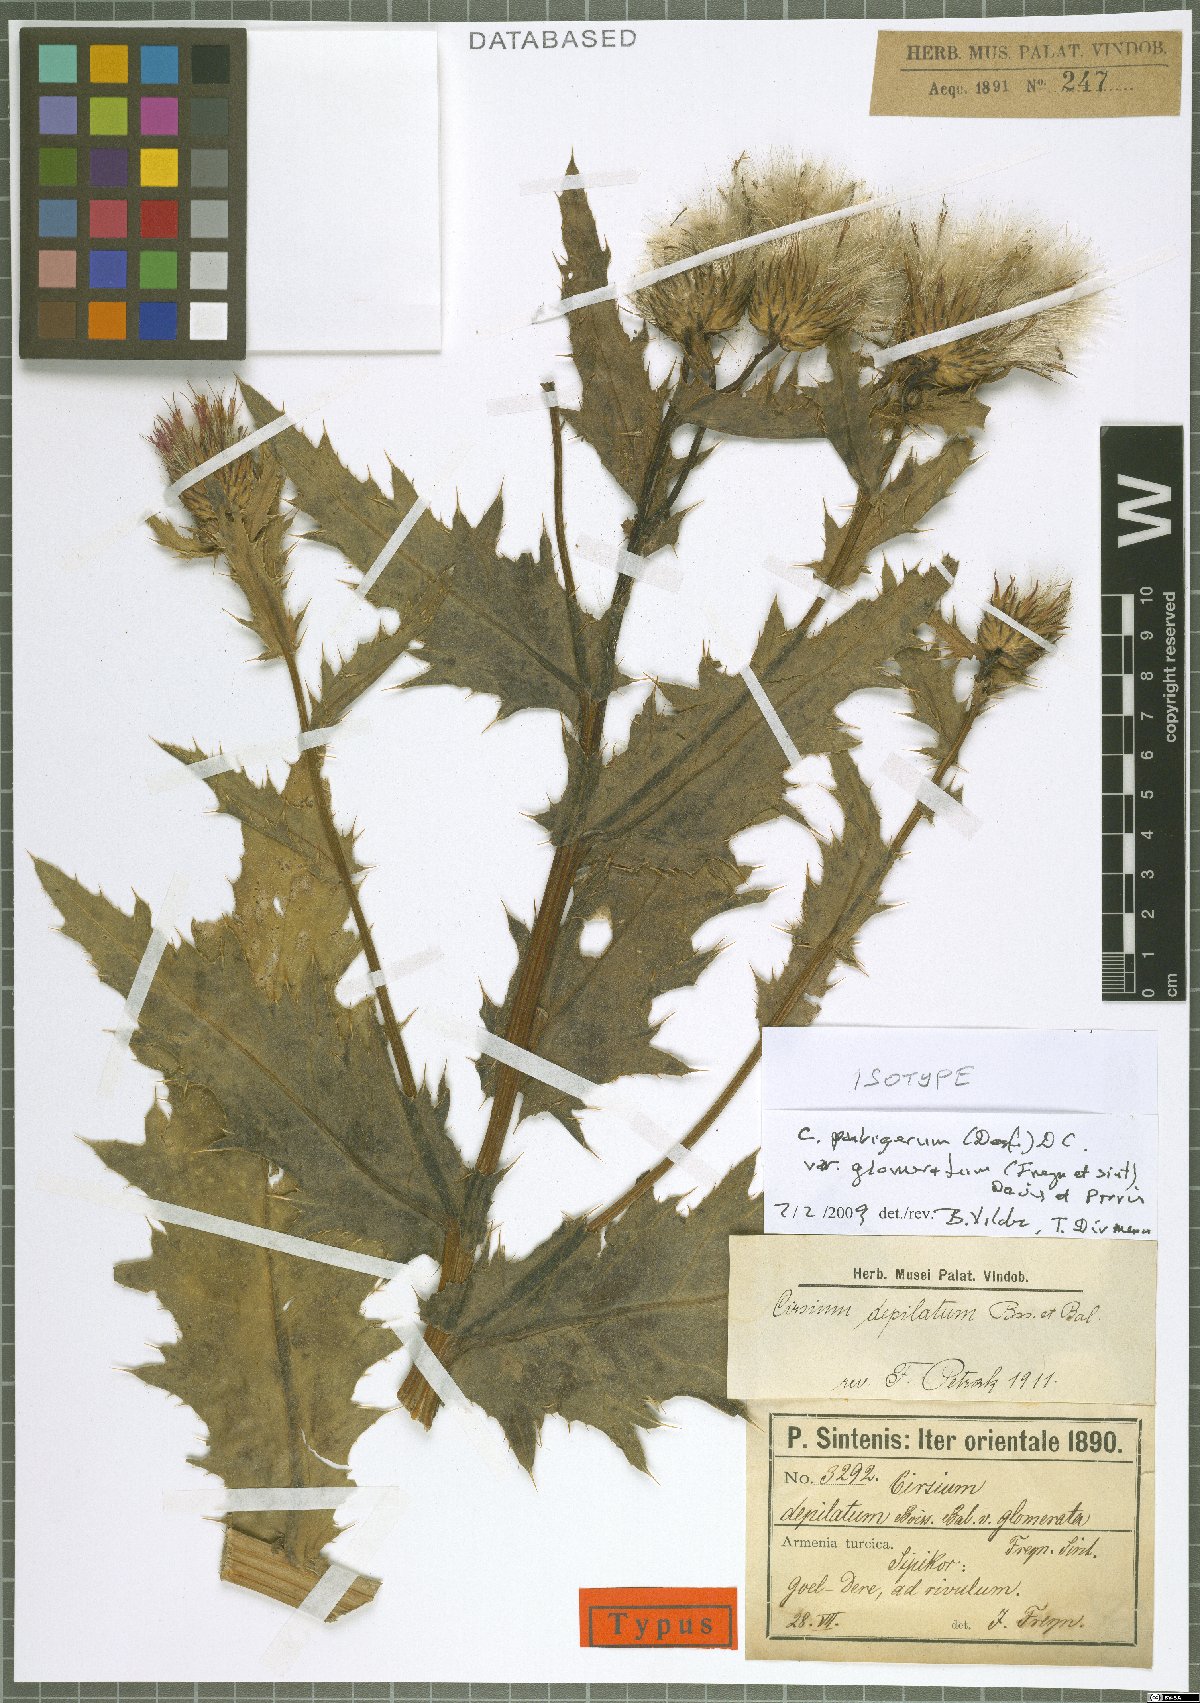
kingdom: Plantae
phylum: Tracheophyta
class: Magnoliopsida
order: Asterales
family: Asteraceae
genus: Cirsium
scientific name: Cirsium pubigerum
